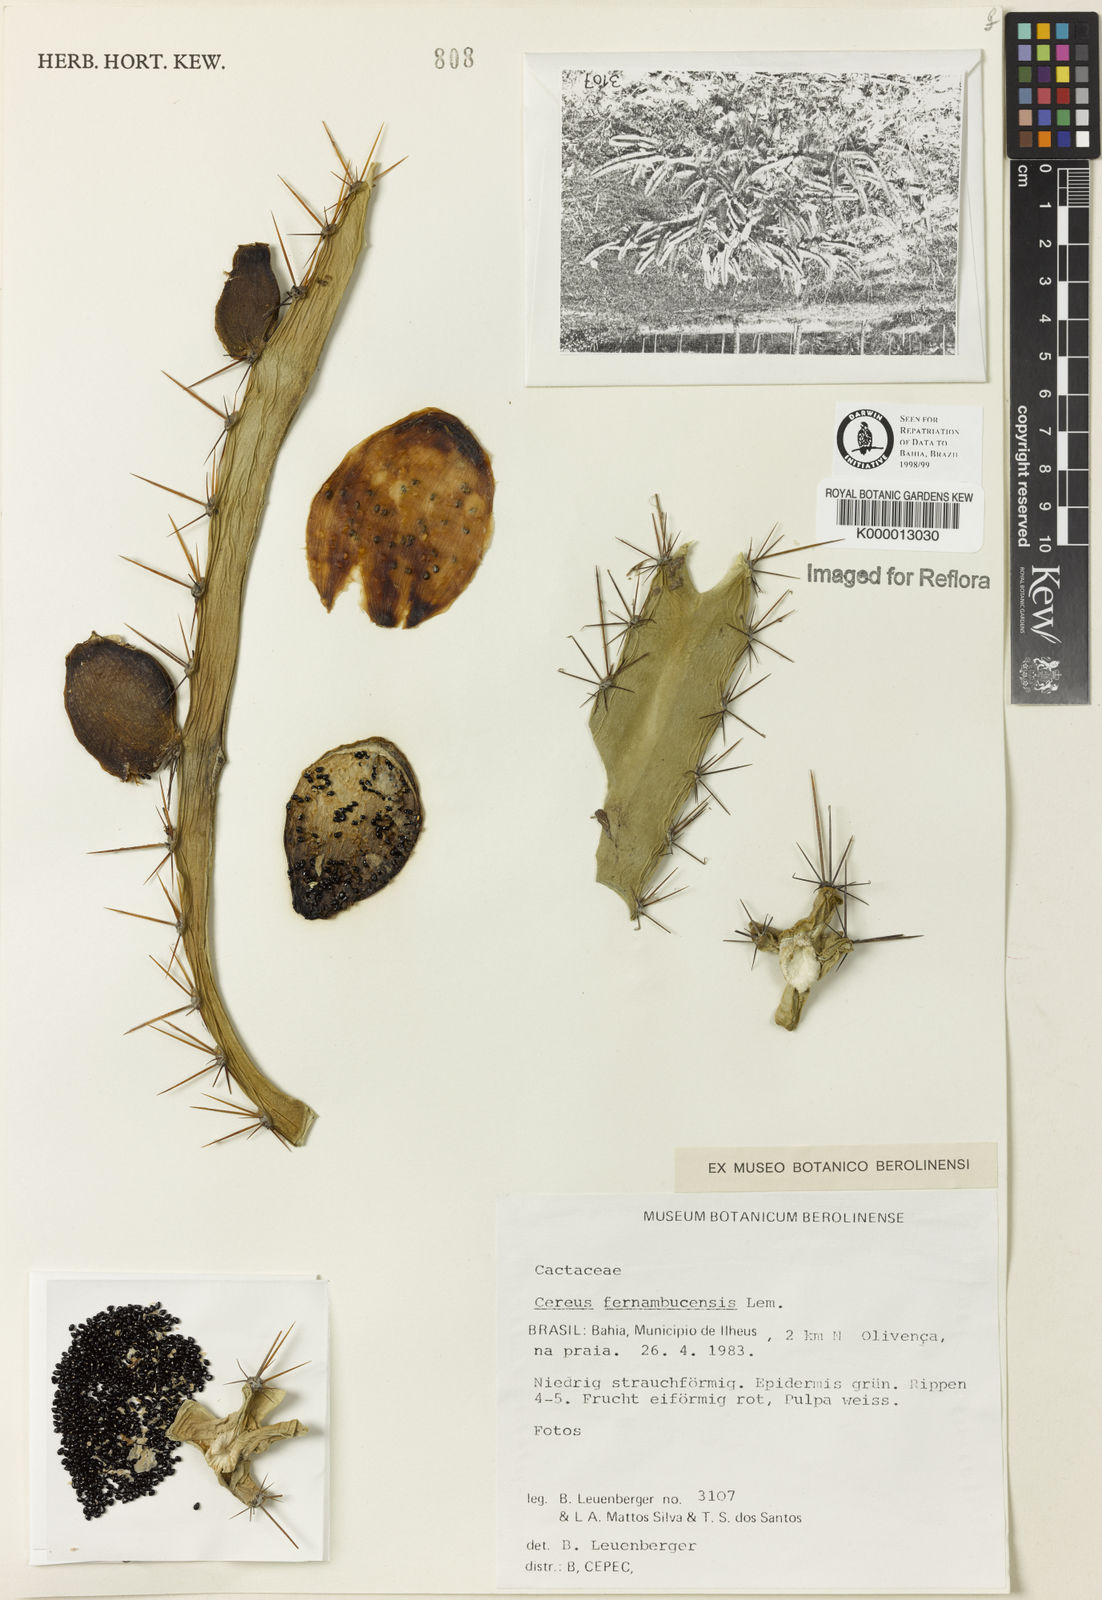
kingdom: Plantae
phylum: Tracheophyta
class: Magnoliopsida
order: Caryophyllales
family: Cactaceae
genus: Cereus
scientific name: Cereus fernambucensis
